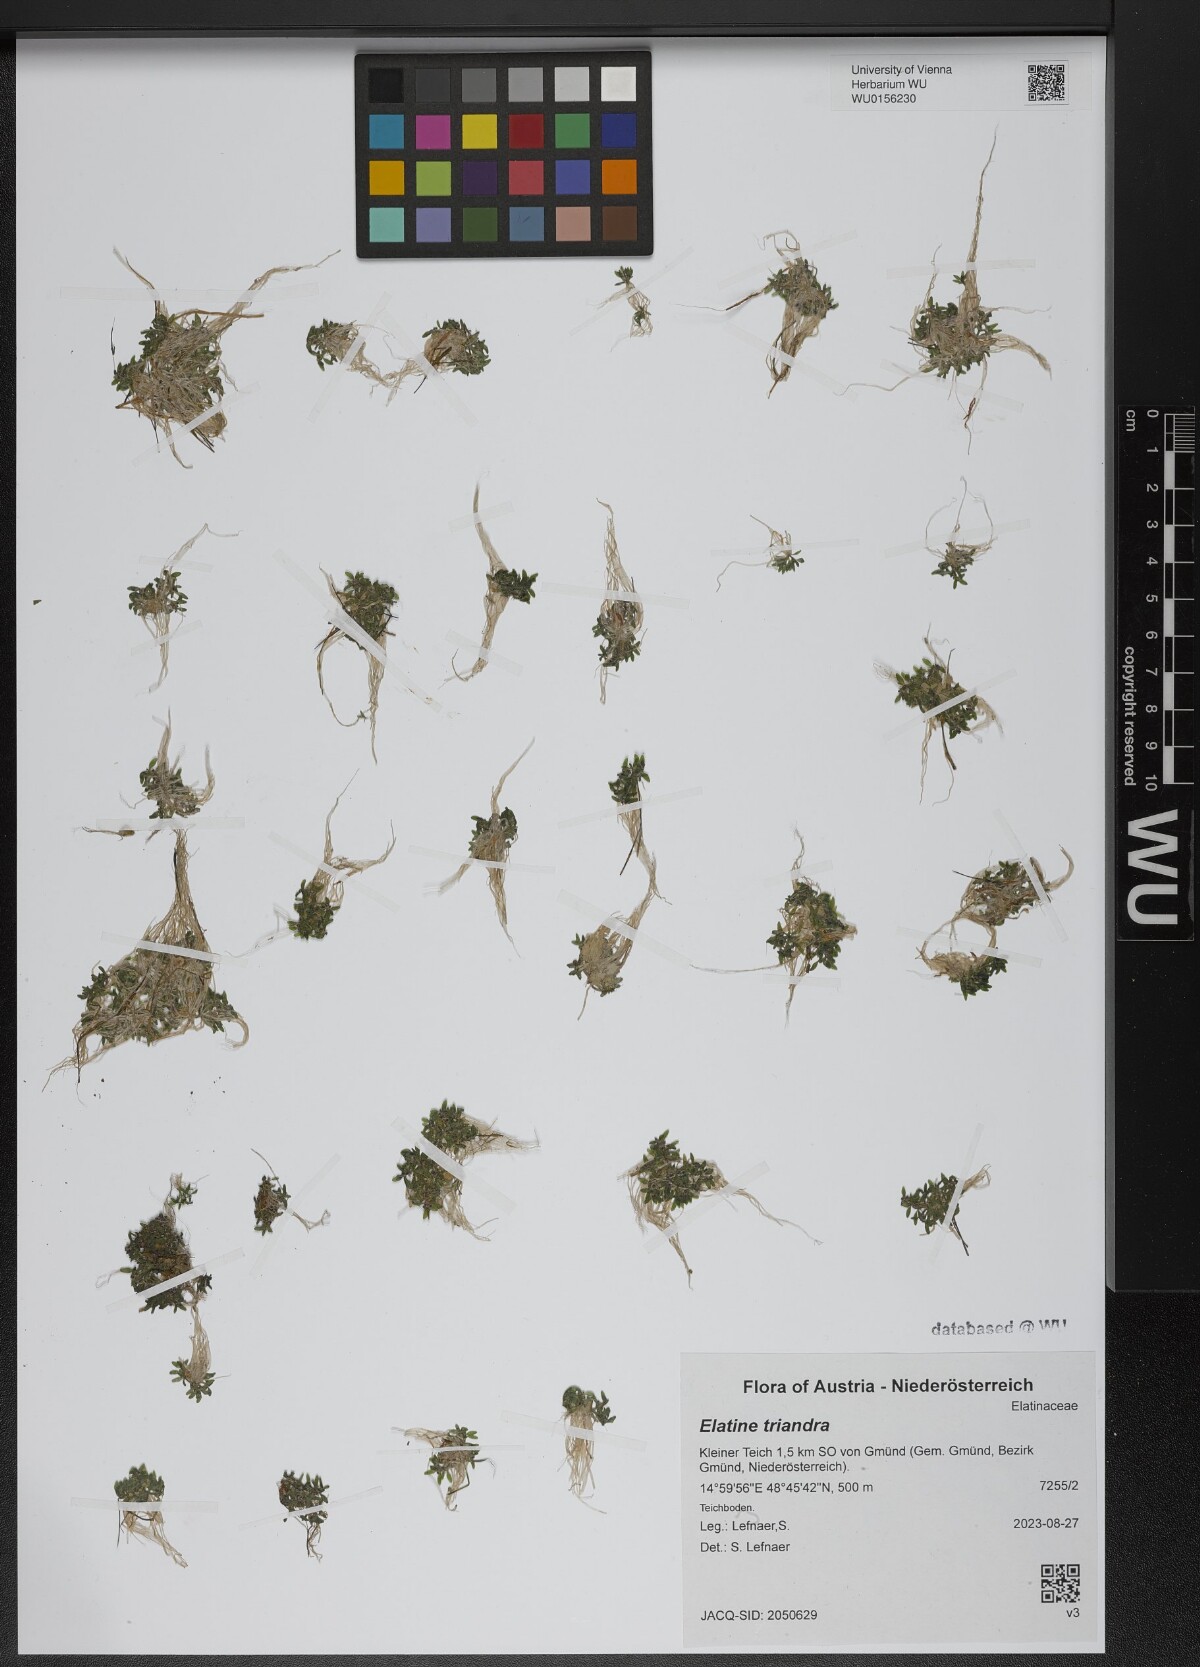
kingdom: Plantae
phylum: Tracheophyta
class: Magnoliopsida
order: Malpighiales
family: Elatinaceae
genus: Elatine
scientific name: Elatine triandra
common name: Three-stamened waterwort
